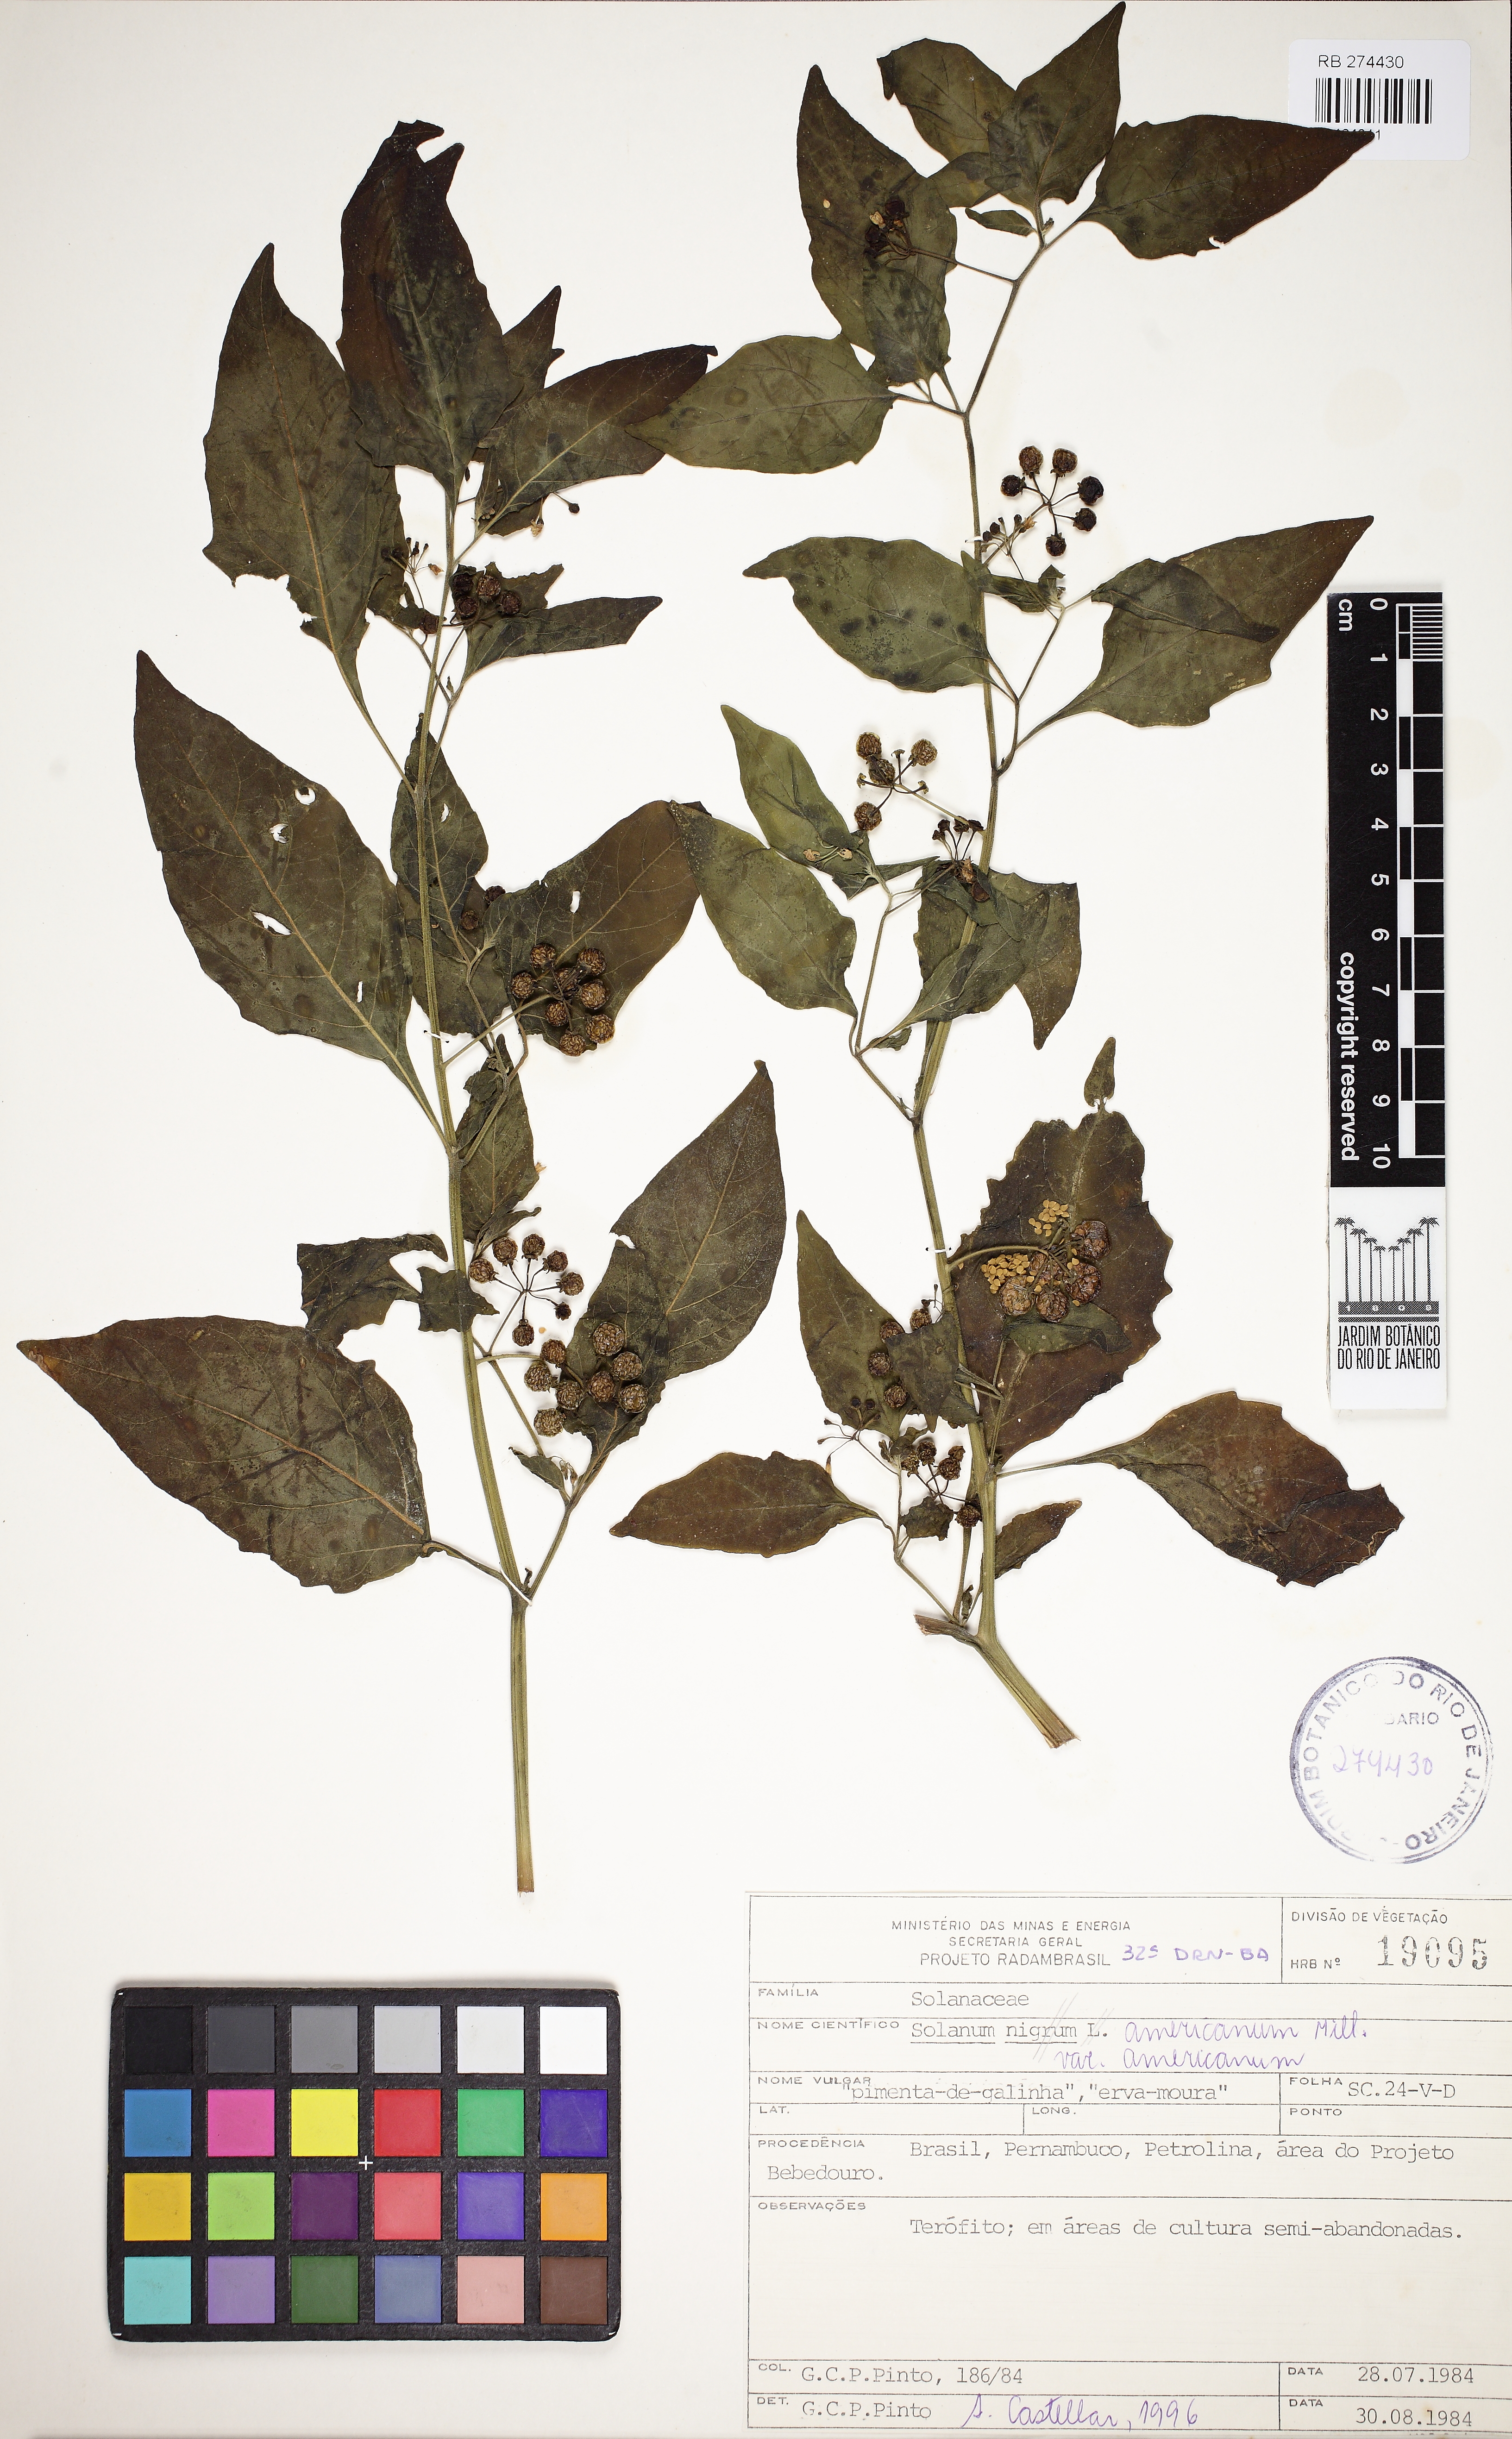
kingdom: Plantae
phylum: Tracheophyta
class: Magnoliopsida
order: Solanales
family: Solanaceae
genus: Solanum
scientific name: Solanum americanum
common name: American black nightshade
